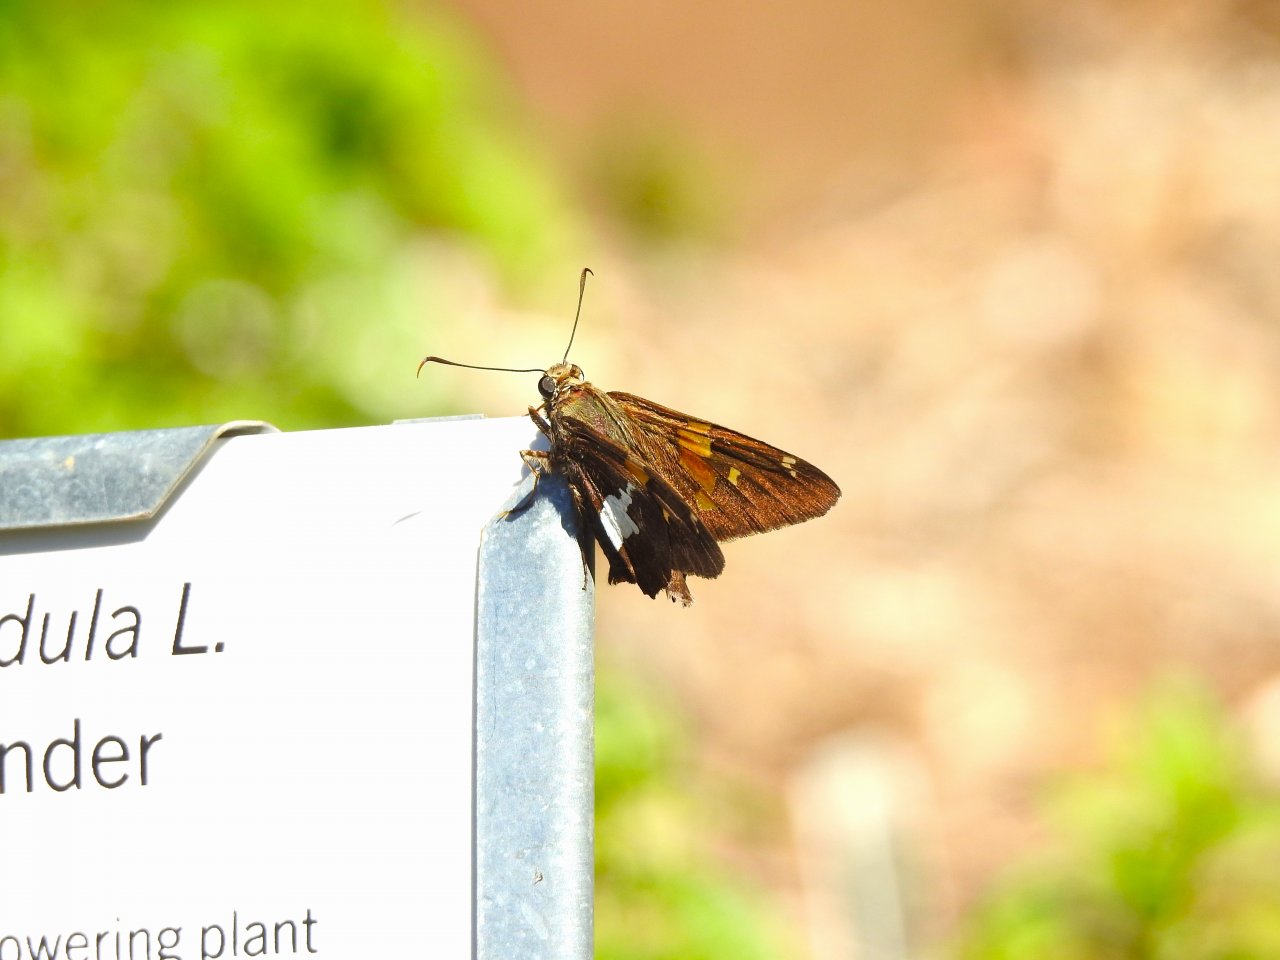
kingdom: Animalia
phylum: Arthropoda
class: Insecta
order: Lepidoptera
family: Hesperiidae
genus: Epargyreus
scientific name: Epargyreus clarus
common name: Silver-spotted Skipper
